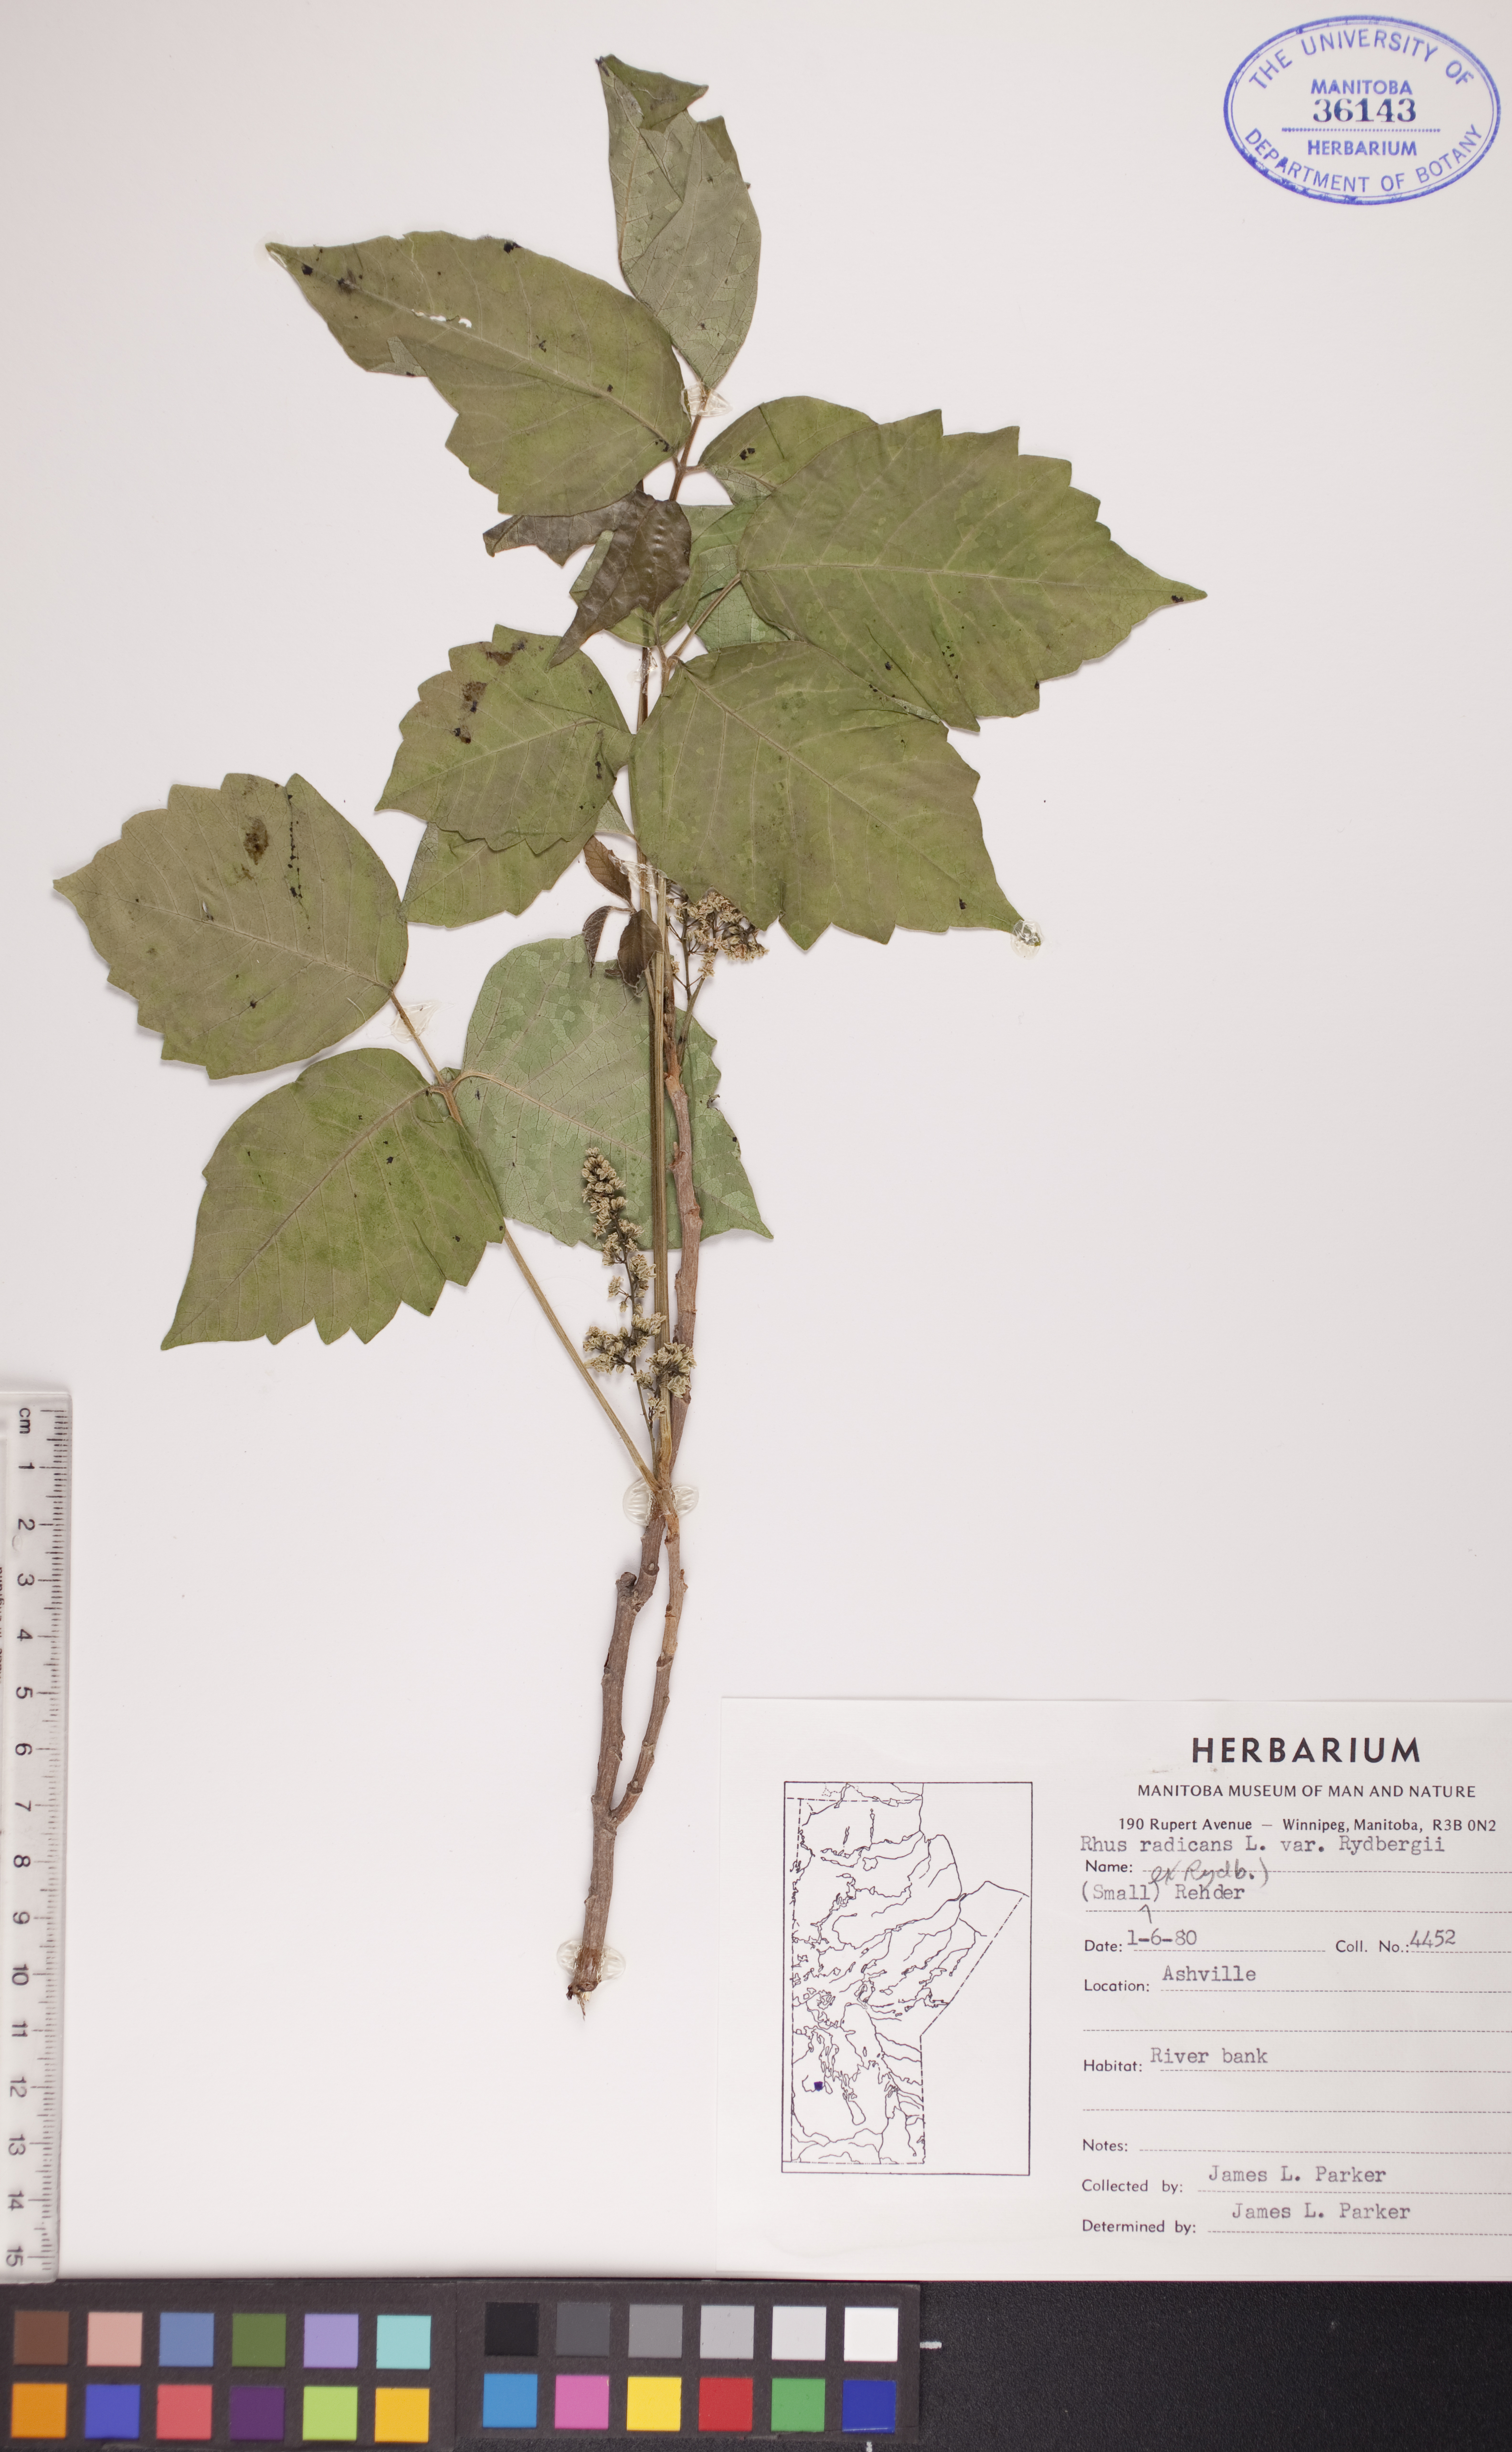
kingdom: Plantae
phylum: Tracheophyta
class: Magnoliopsida
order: Sapindales
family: Anacardiaceae
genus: Toxicodendron
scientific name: Toxicodendron rydbergii
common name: Rydberg's poison-ivy
